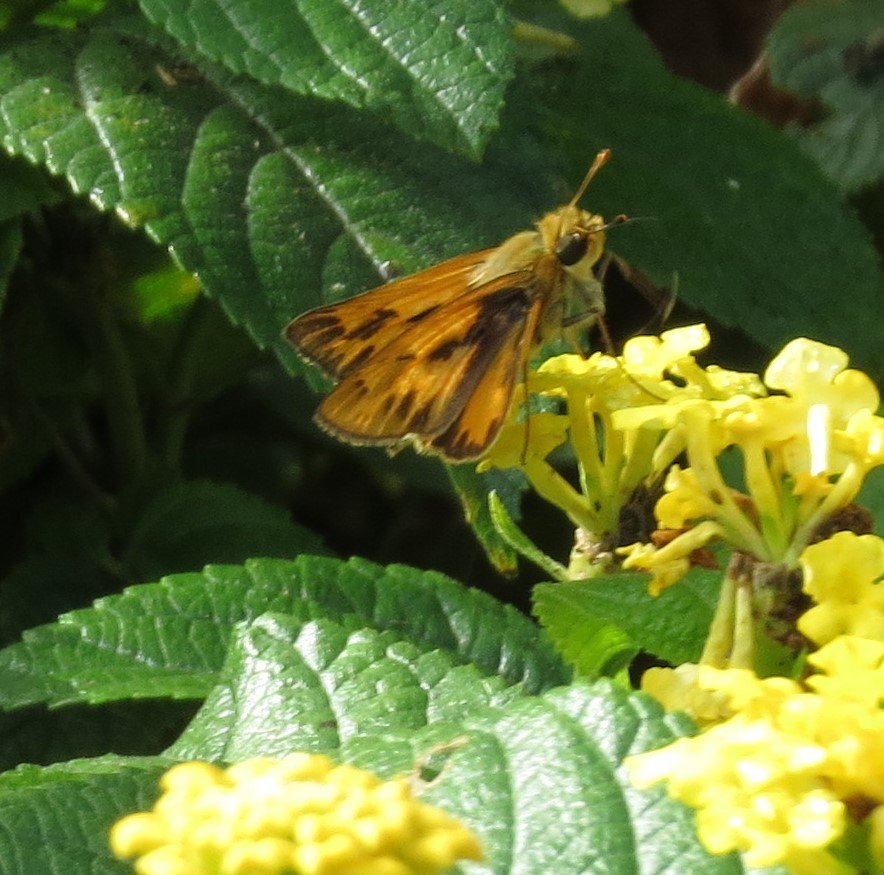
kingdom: Animalia
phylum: Arthropoda
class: Insecta
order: Lepidoptera
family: Hesperiidae
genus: Hylephila
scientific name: Hylephila phyleus
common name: Fiery Skipper
